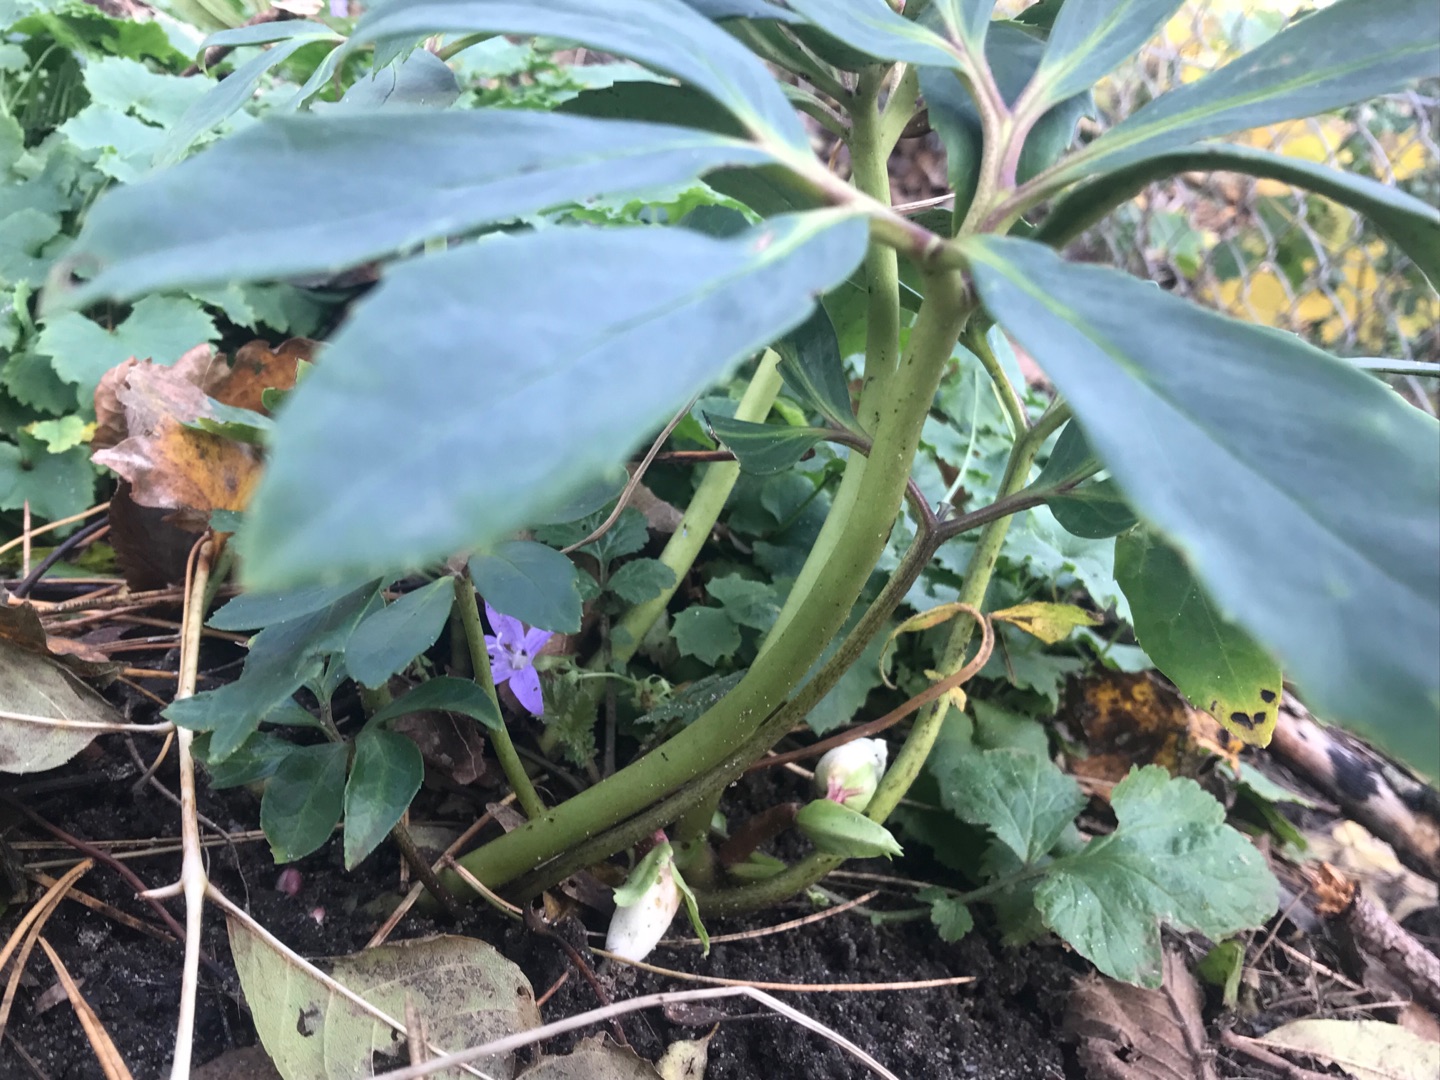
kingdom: Plantae
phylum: Tracheophyta
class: Magnoliopsida
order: Ranunculales
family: Ranunculaceae
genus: Helleborus
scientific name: Helleborus niger
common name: Hvid julerose
